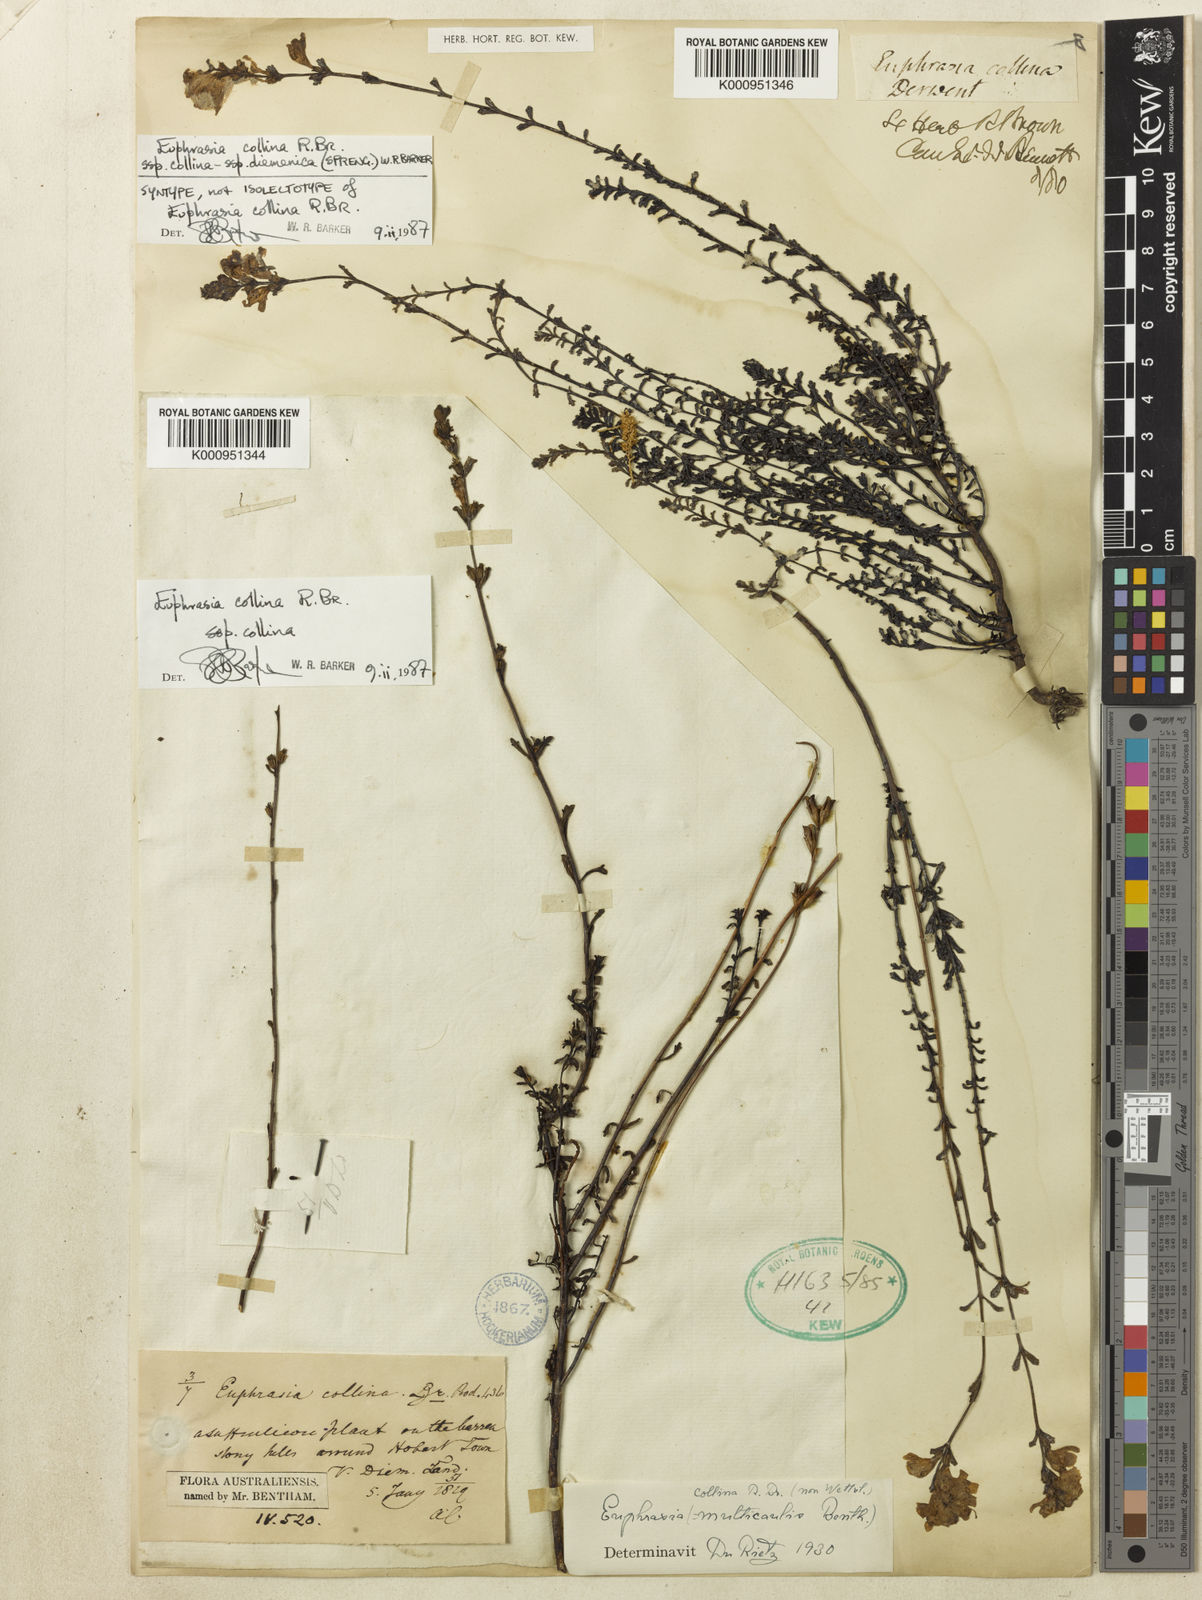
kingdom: Plantae
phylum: Tracheophyta
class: Magnoliopsida
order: Lamiales
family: Orobanchaceae
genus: Euphrasia
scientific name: Euphrasia collina
